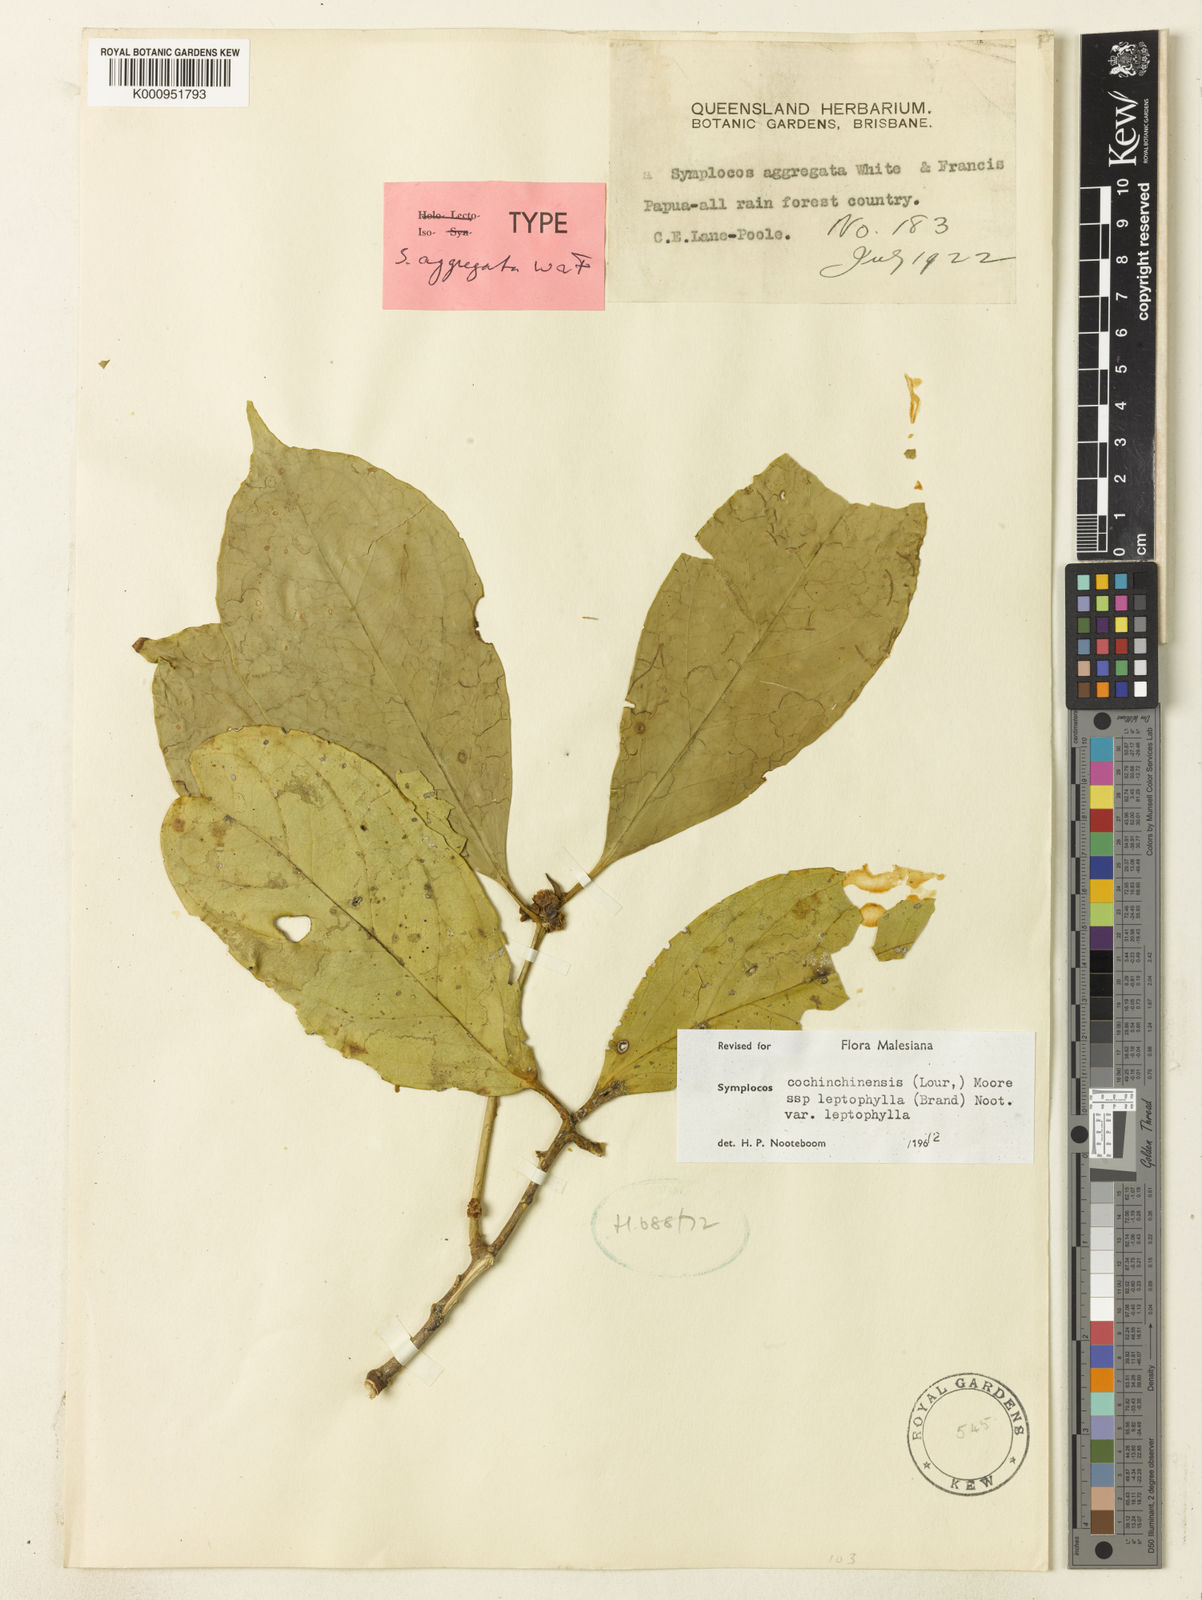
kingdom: Plantae
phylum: Tracheophyta
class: Magnoliopsida
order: Ericales
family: Symplocaceae
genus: Symplocos
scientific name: Symplocos cochinchinensis
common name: Buff hazelwood
